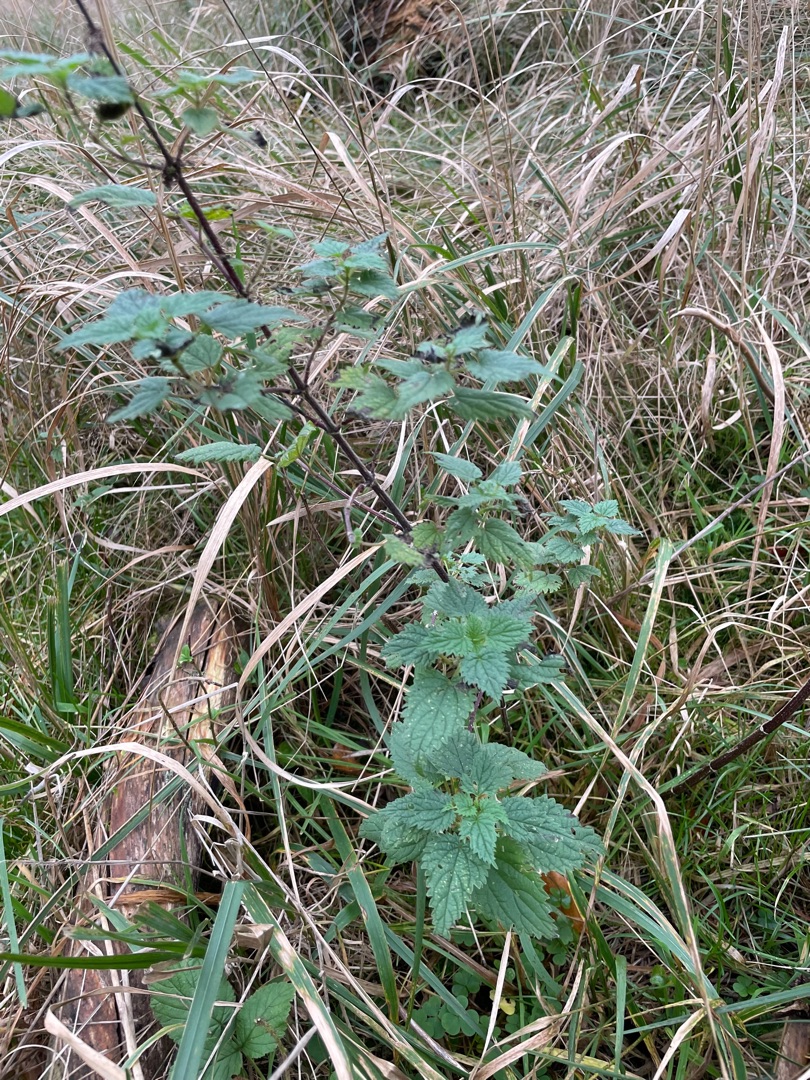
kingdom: Plantae
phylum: Tracheophyta
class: Magnoliopsida
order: Rosales
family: Urticaceae
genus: Urtica
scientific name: Urtica dioica
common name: Stor nælde
